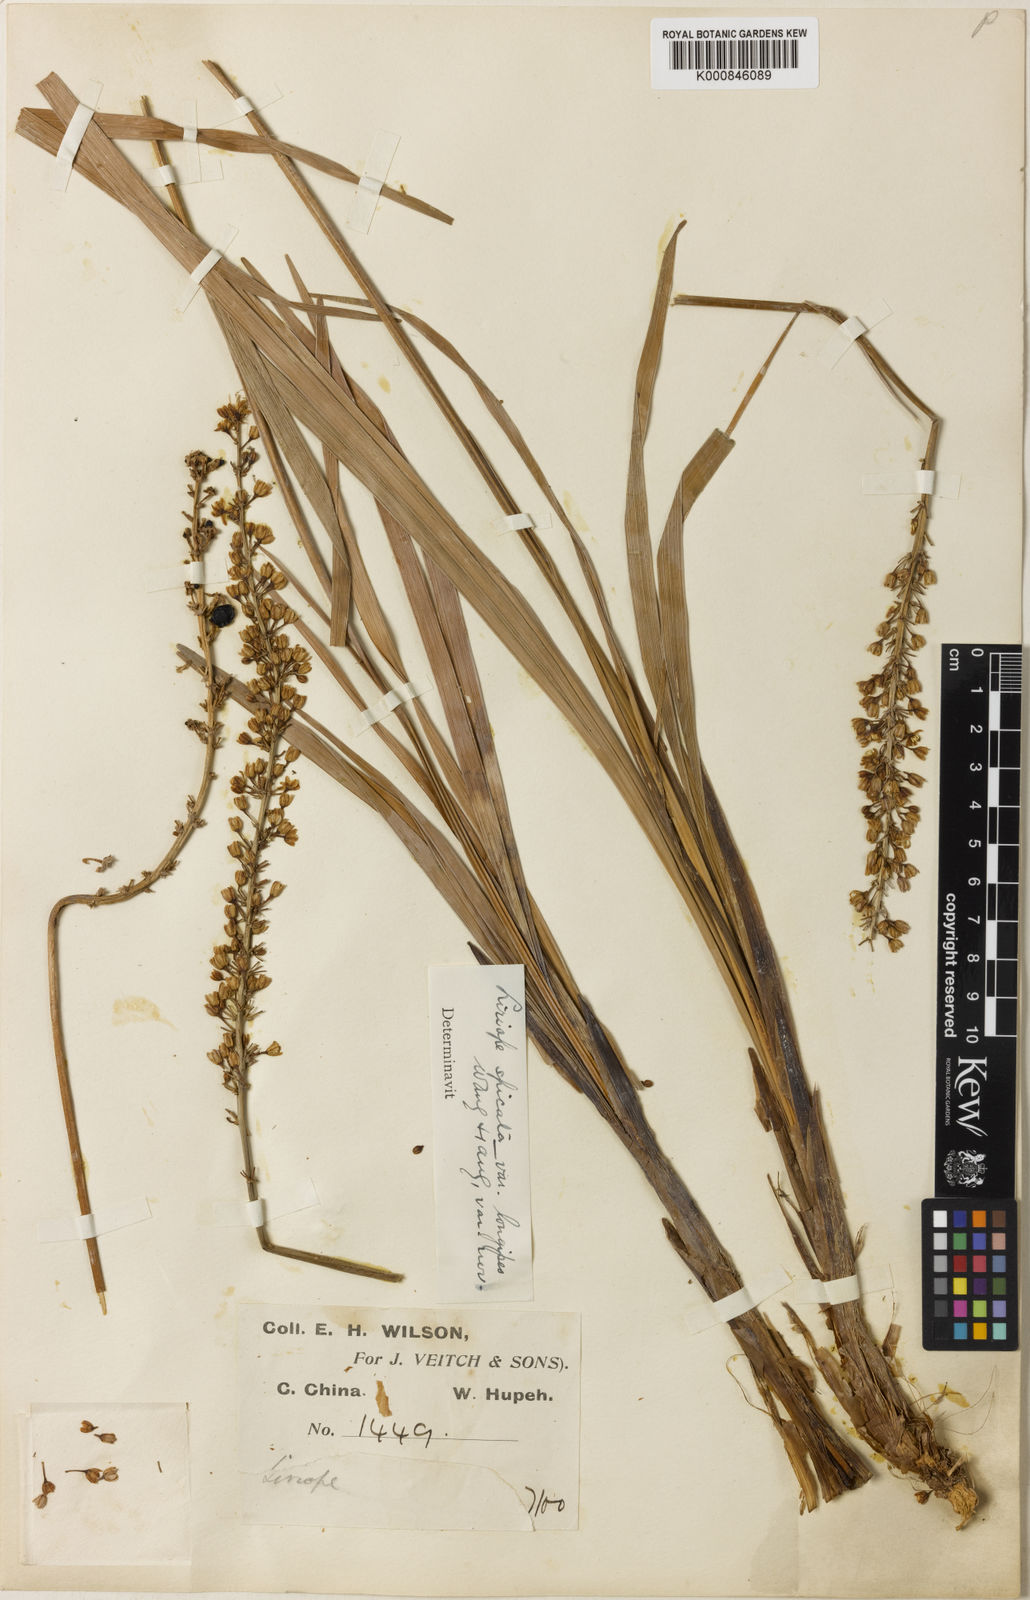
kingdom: Plantae
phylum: Tracheophyta
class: Liliopsida
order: Asparagales
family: Asparagaceae
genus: Liriope
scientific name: Liriope spicata
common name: Creeping liriope
